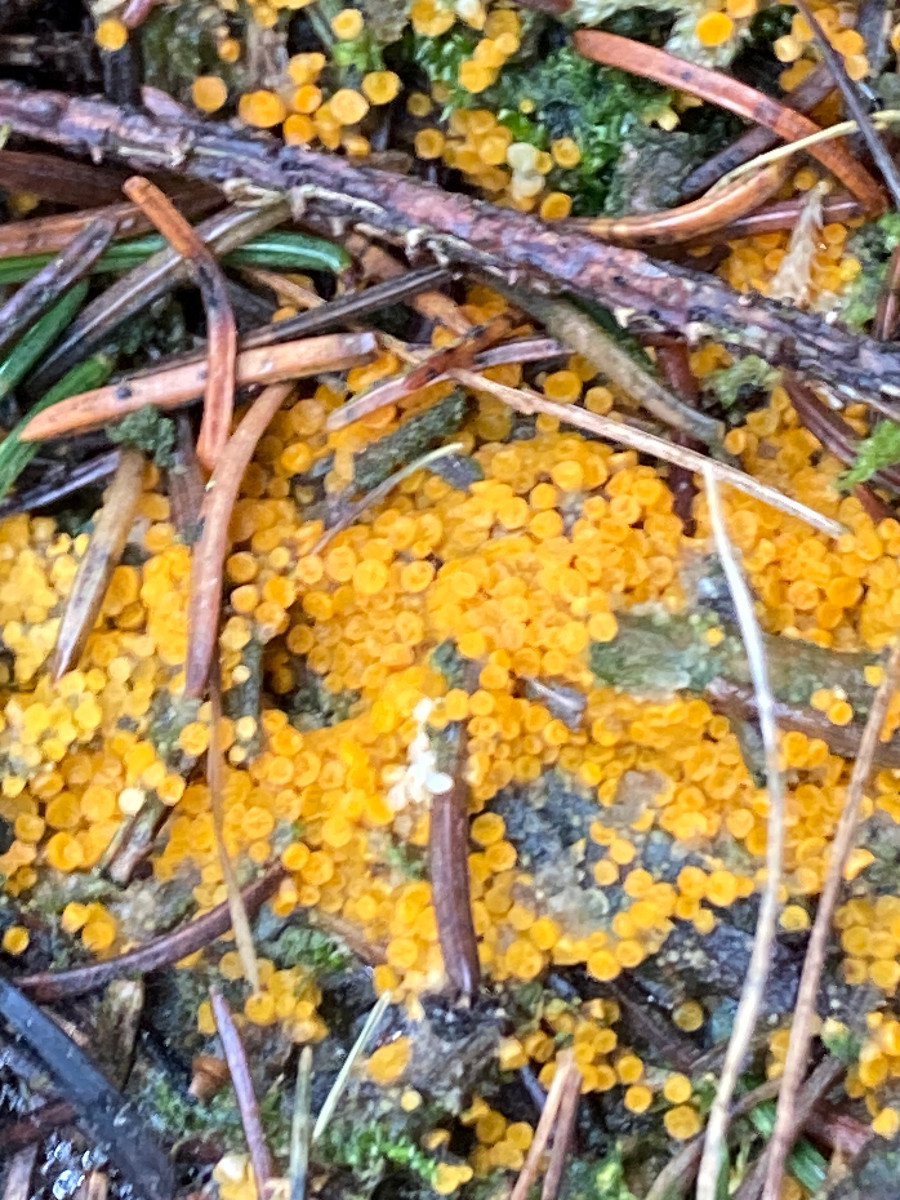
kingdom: Fungi
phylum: Ascomycota
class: Pezizomycetes
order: Pezizales
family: Pyronemataceae
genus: Byssonectria
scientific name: Byssonectria terrestris
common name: hjortebæger
